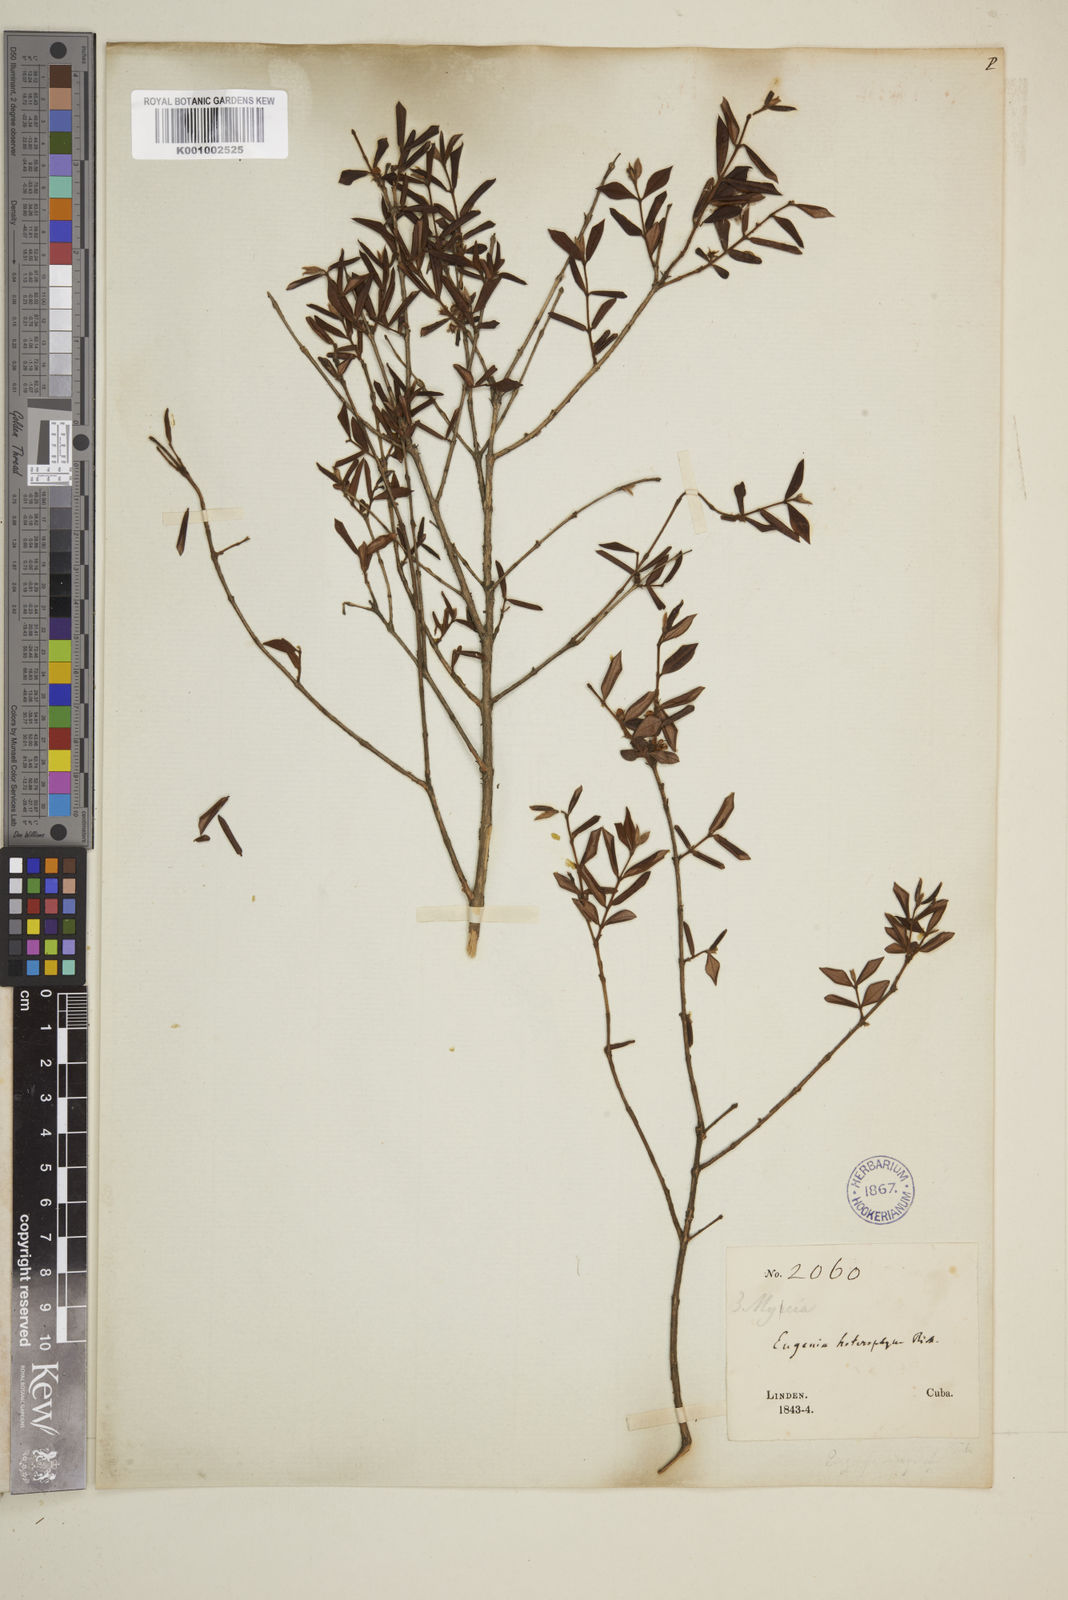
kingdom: Plantae
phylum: Tracheophyta
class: Magnoliopsida
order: Myrtales
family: Myrtaceae
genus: Eugenia
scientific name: Eugenia heterophylla
